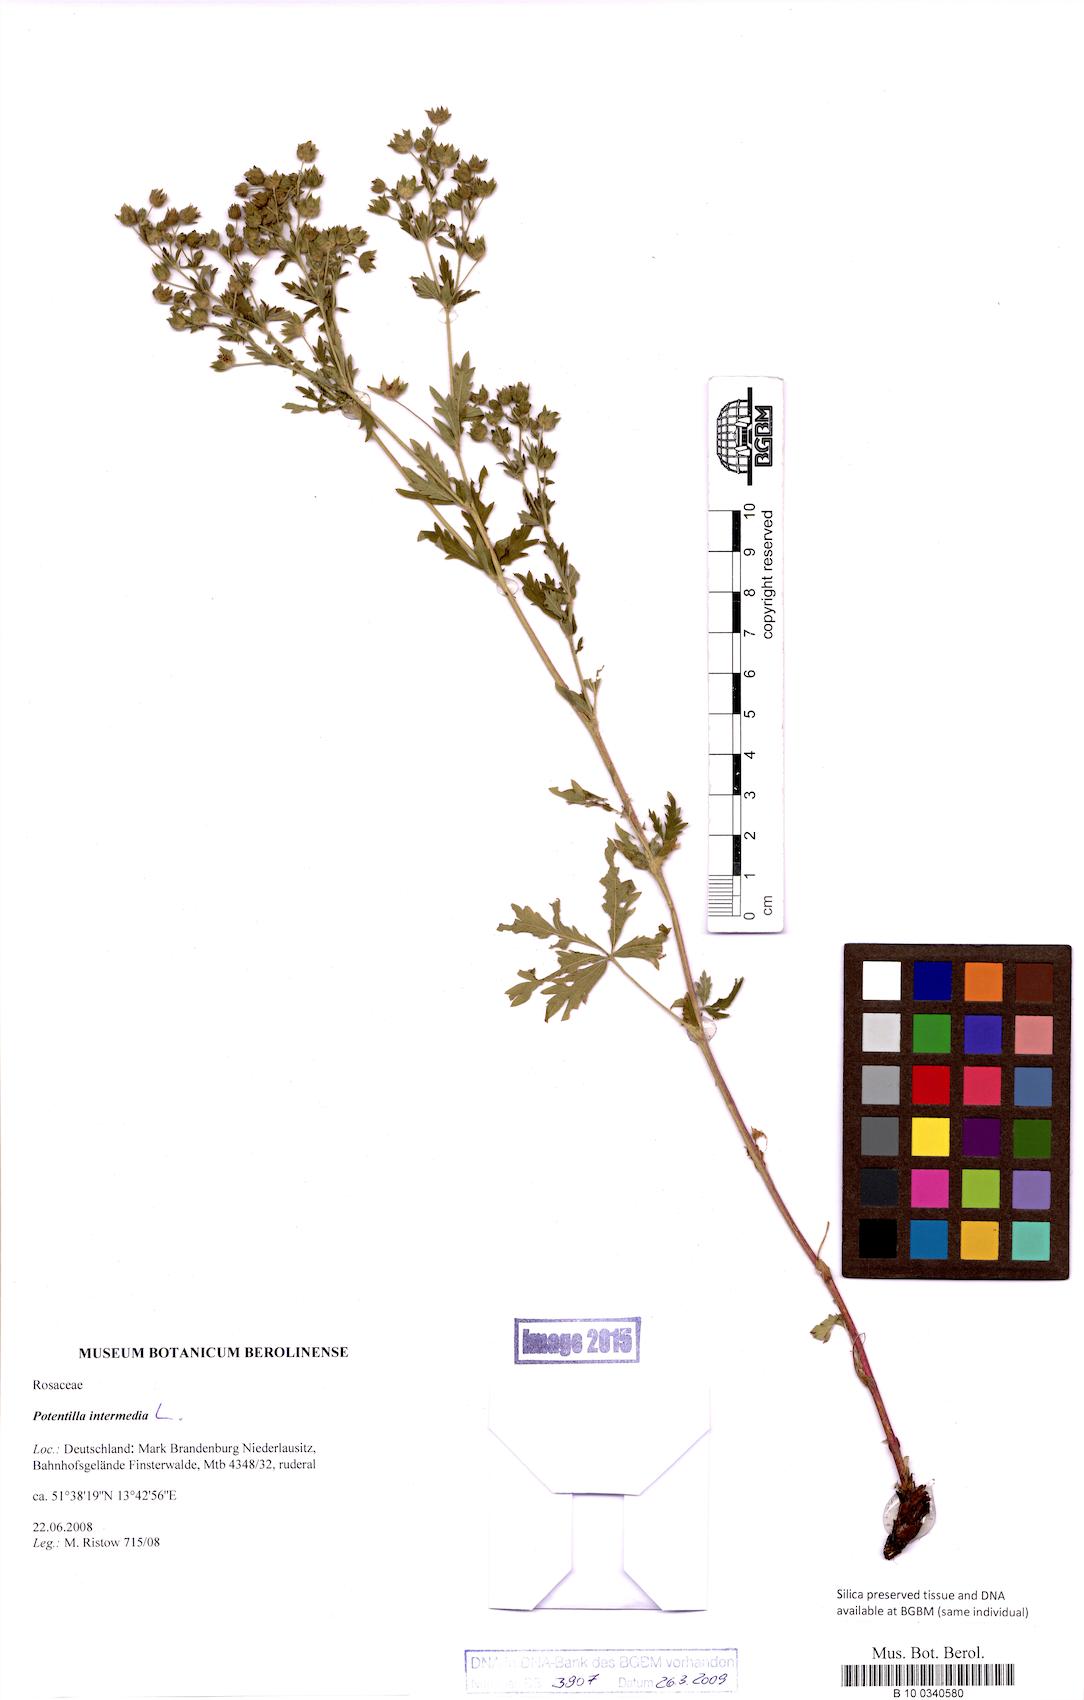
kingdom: Plantae
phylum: Tracheophyta
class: Magnoliopsida
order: Rosales
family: Rosaceae
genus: Potentilla
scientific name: Potentilla intermedia
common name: Downy cinquefoil
